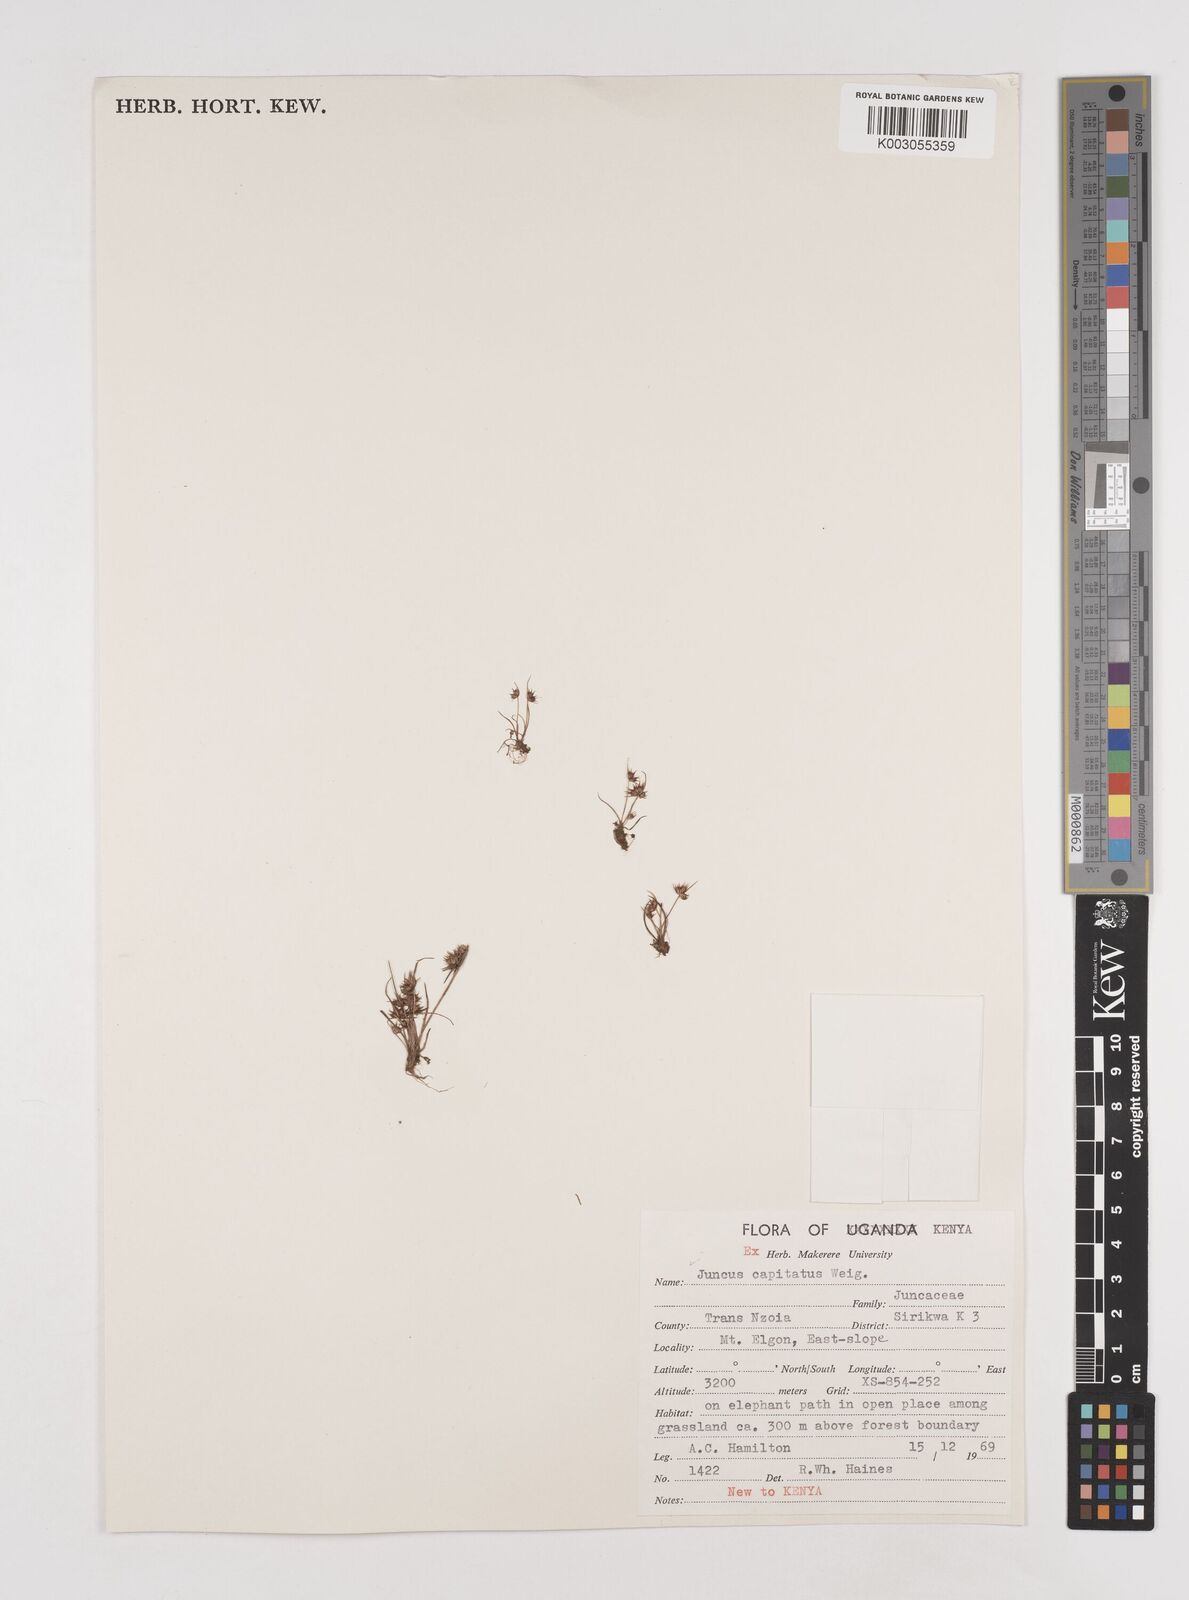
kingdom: Plantae
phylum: Tracheophyta
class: Liliopsida
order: Poales
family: Juncaceae
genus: Juncus
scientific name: Juncus capitatus
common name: Dwarf rush
